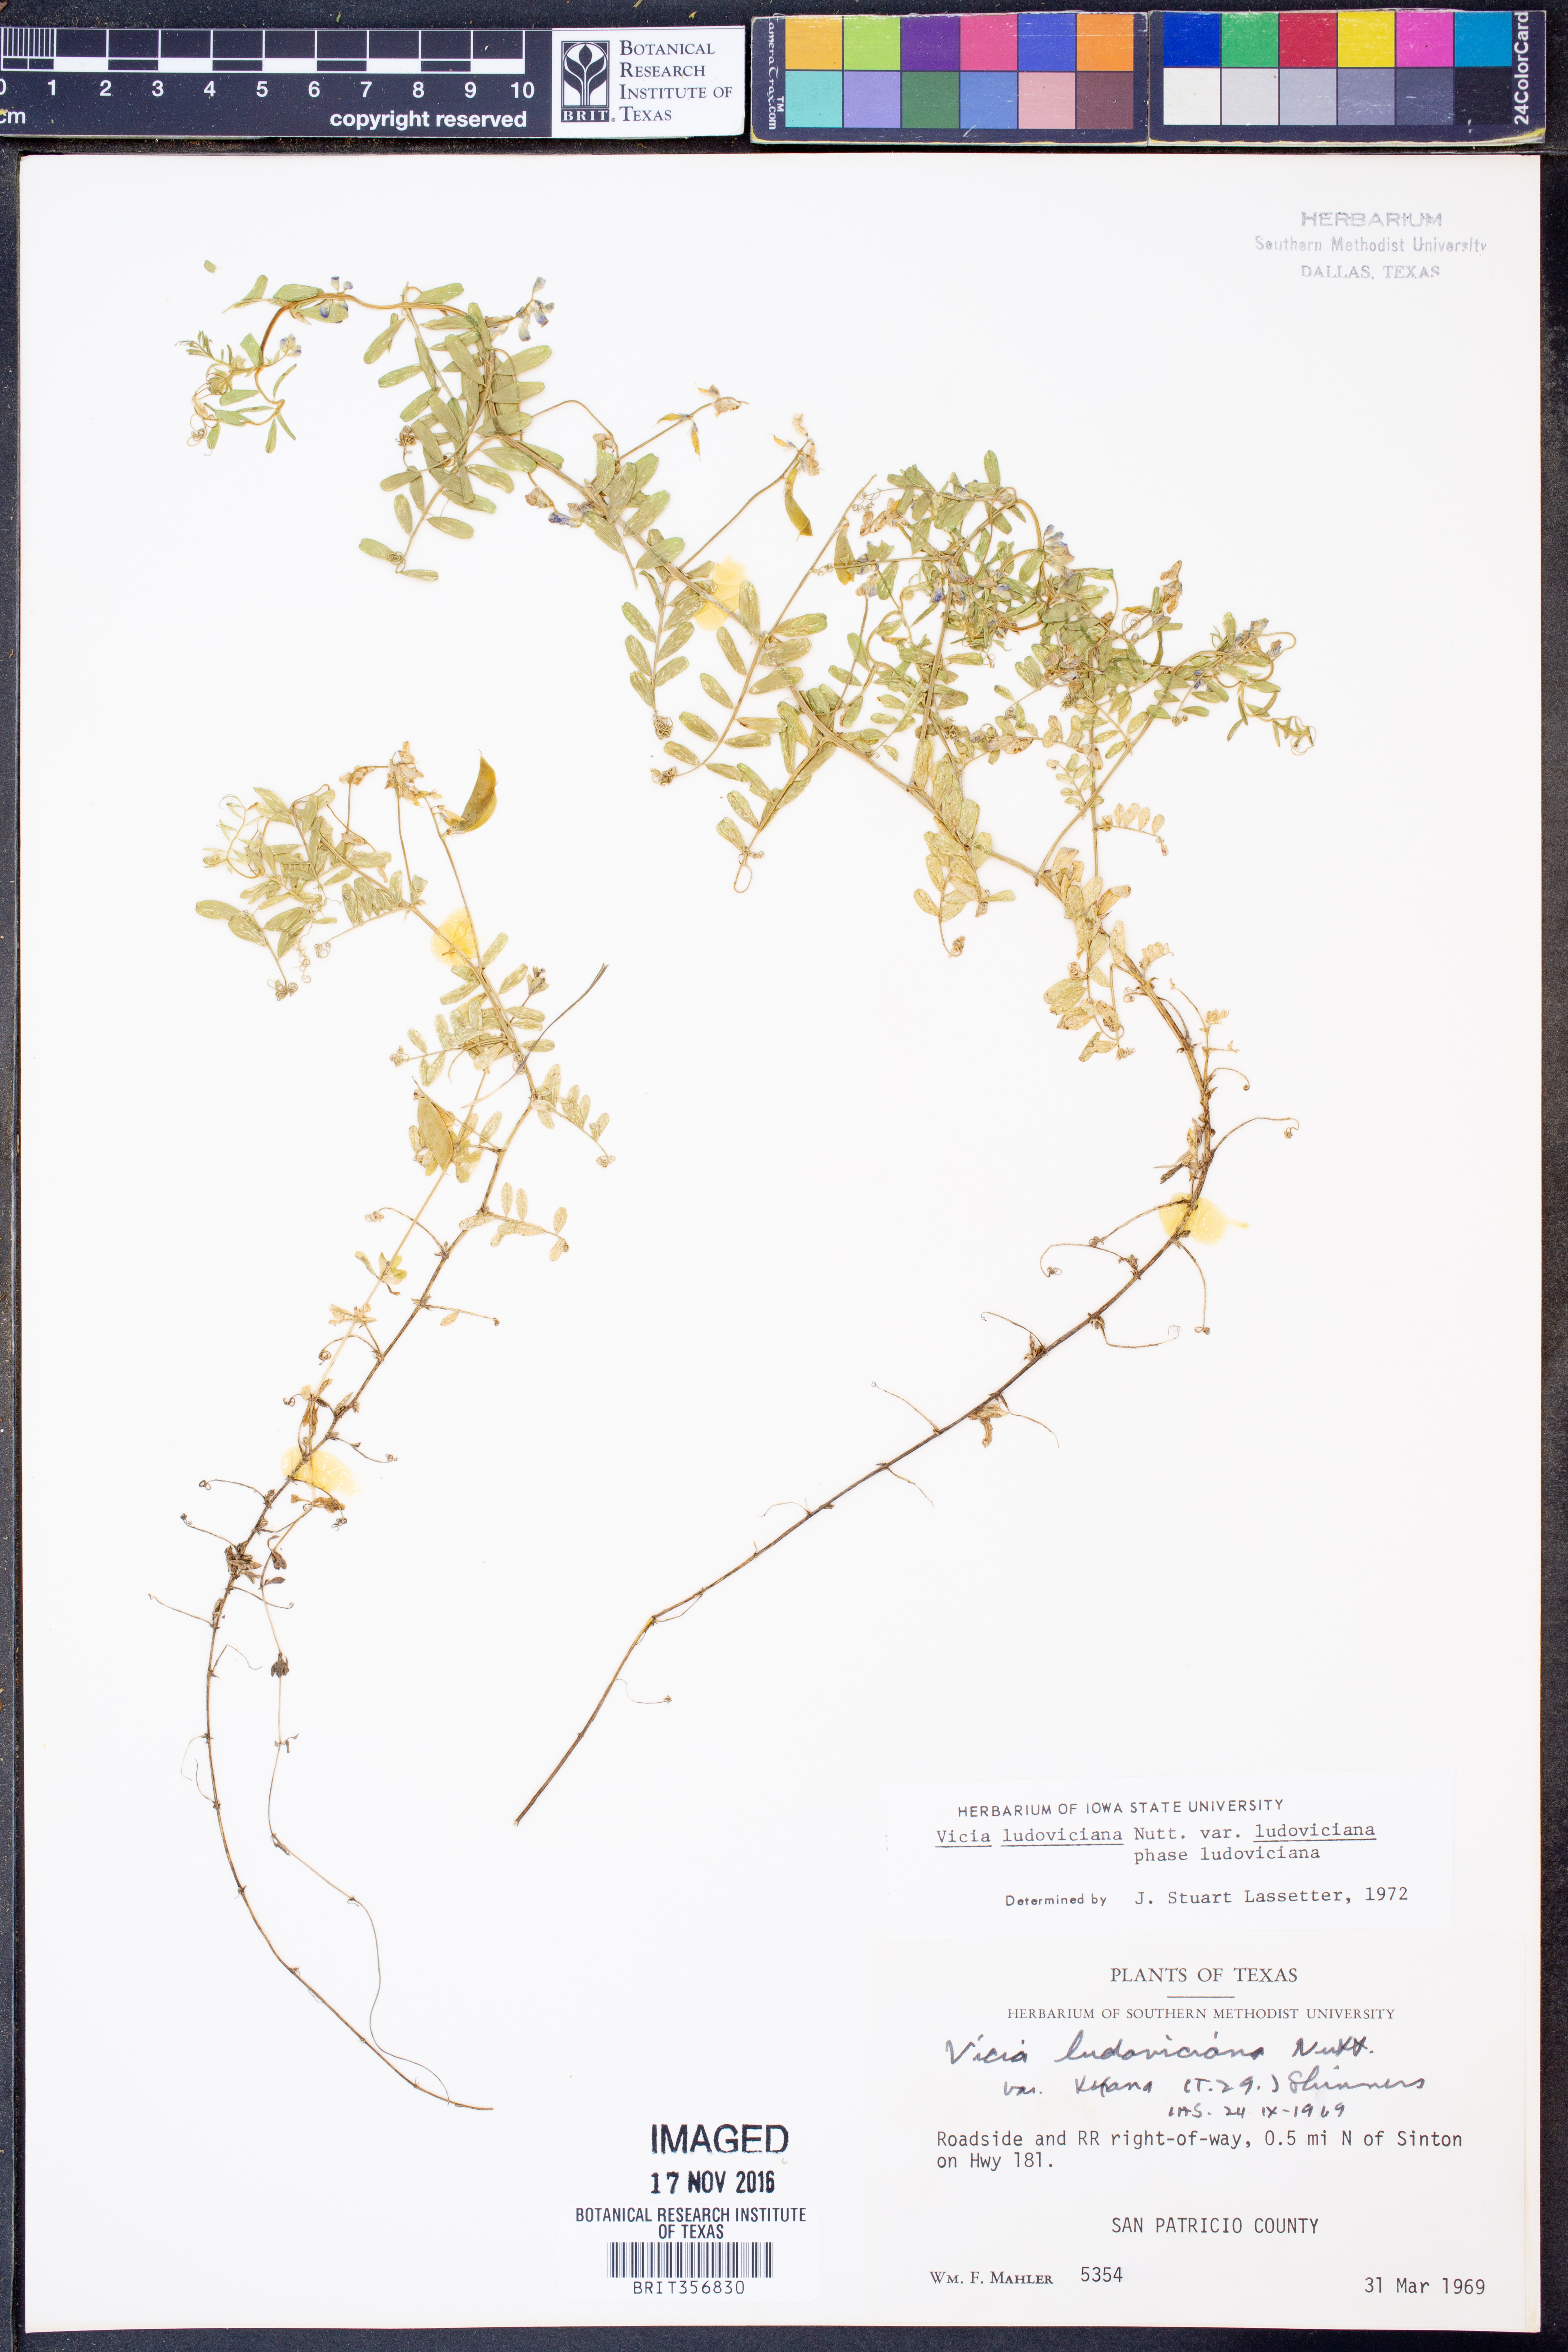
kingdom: Plantae
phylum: Tracheophyta
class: Magnoliopsida
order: Fabales
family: Fabaceae
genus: Vicia
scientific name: Vicia ludoviciana
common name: Louisiana vetch
